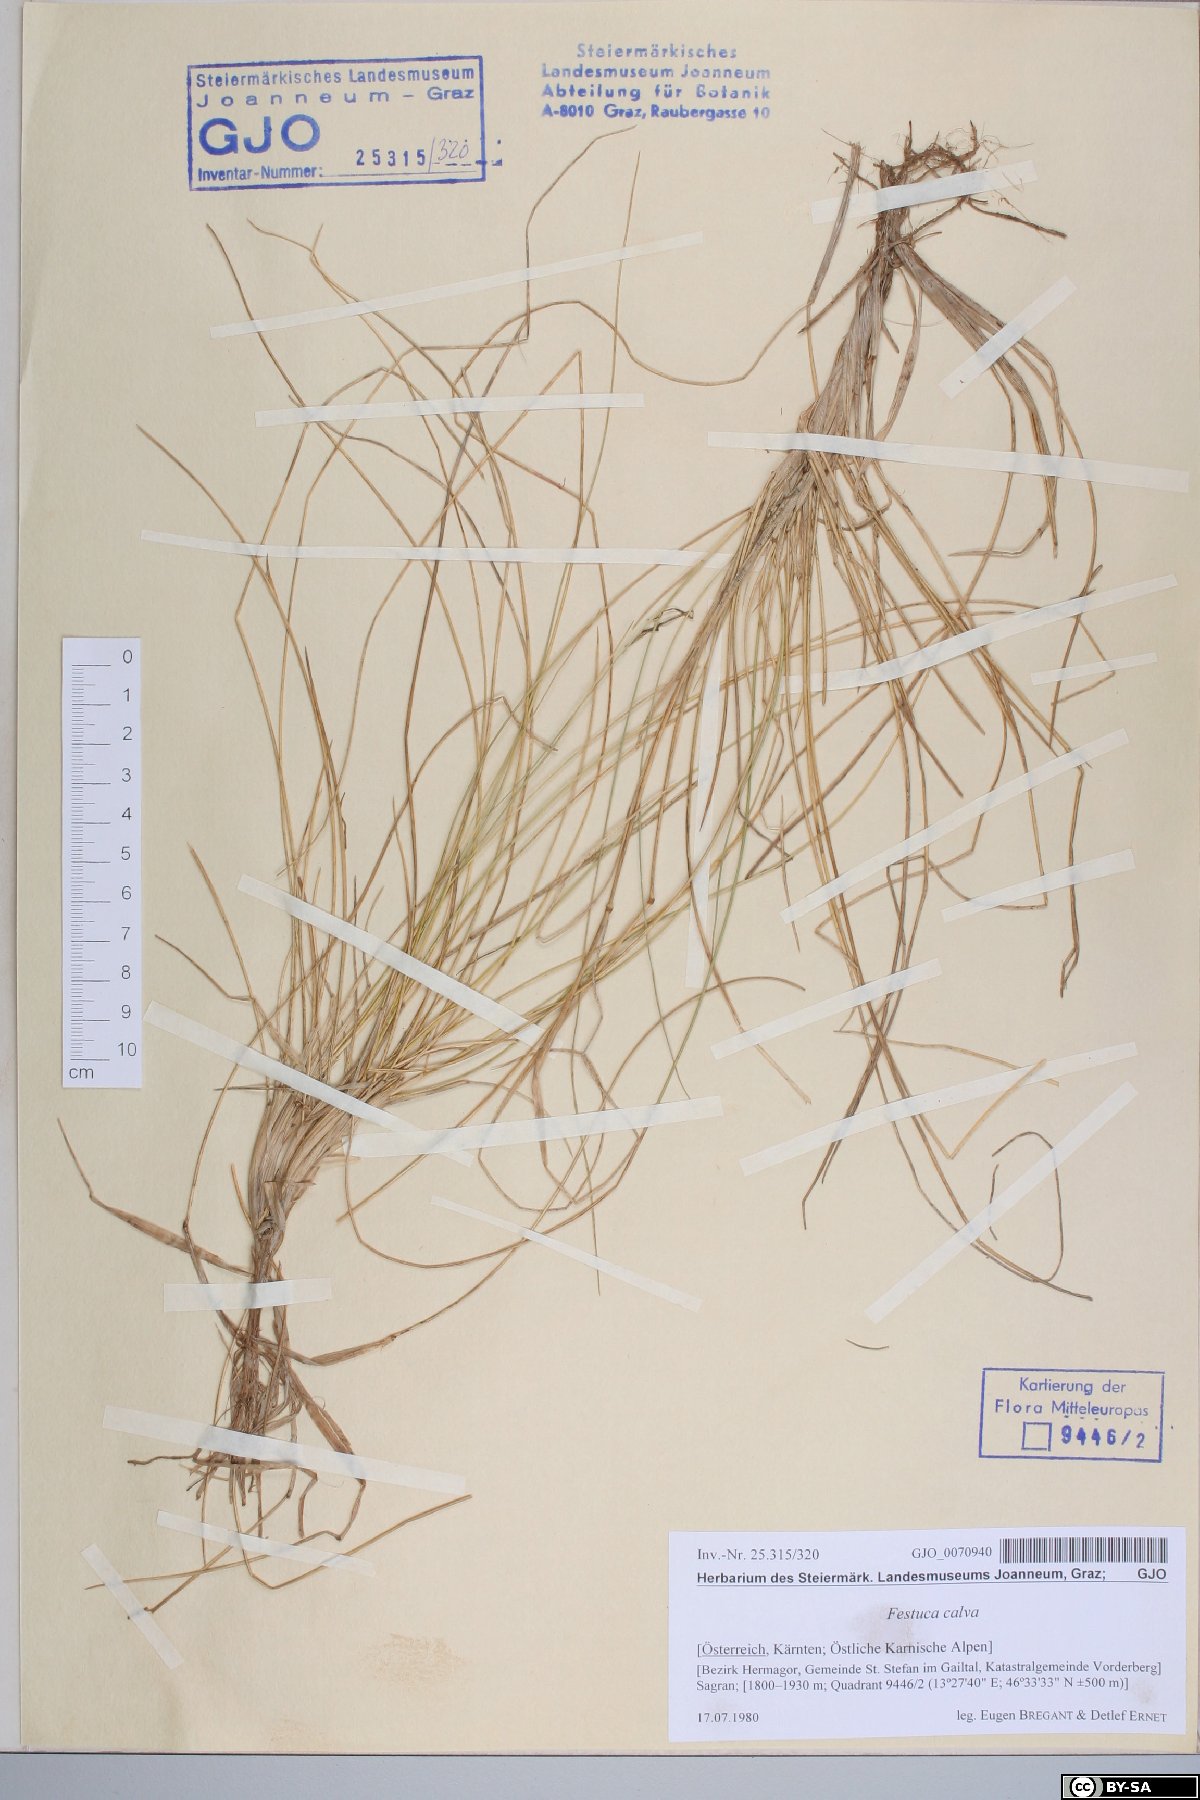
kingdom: Plantae
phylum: Tracheophyta
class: Liliopsida
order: Poales
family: Poaceae
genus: Festuca
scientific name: Festuca calva
